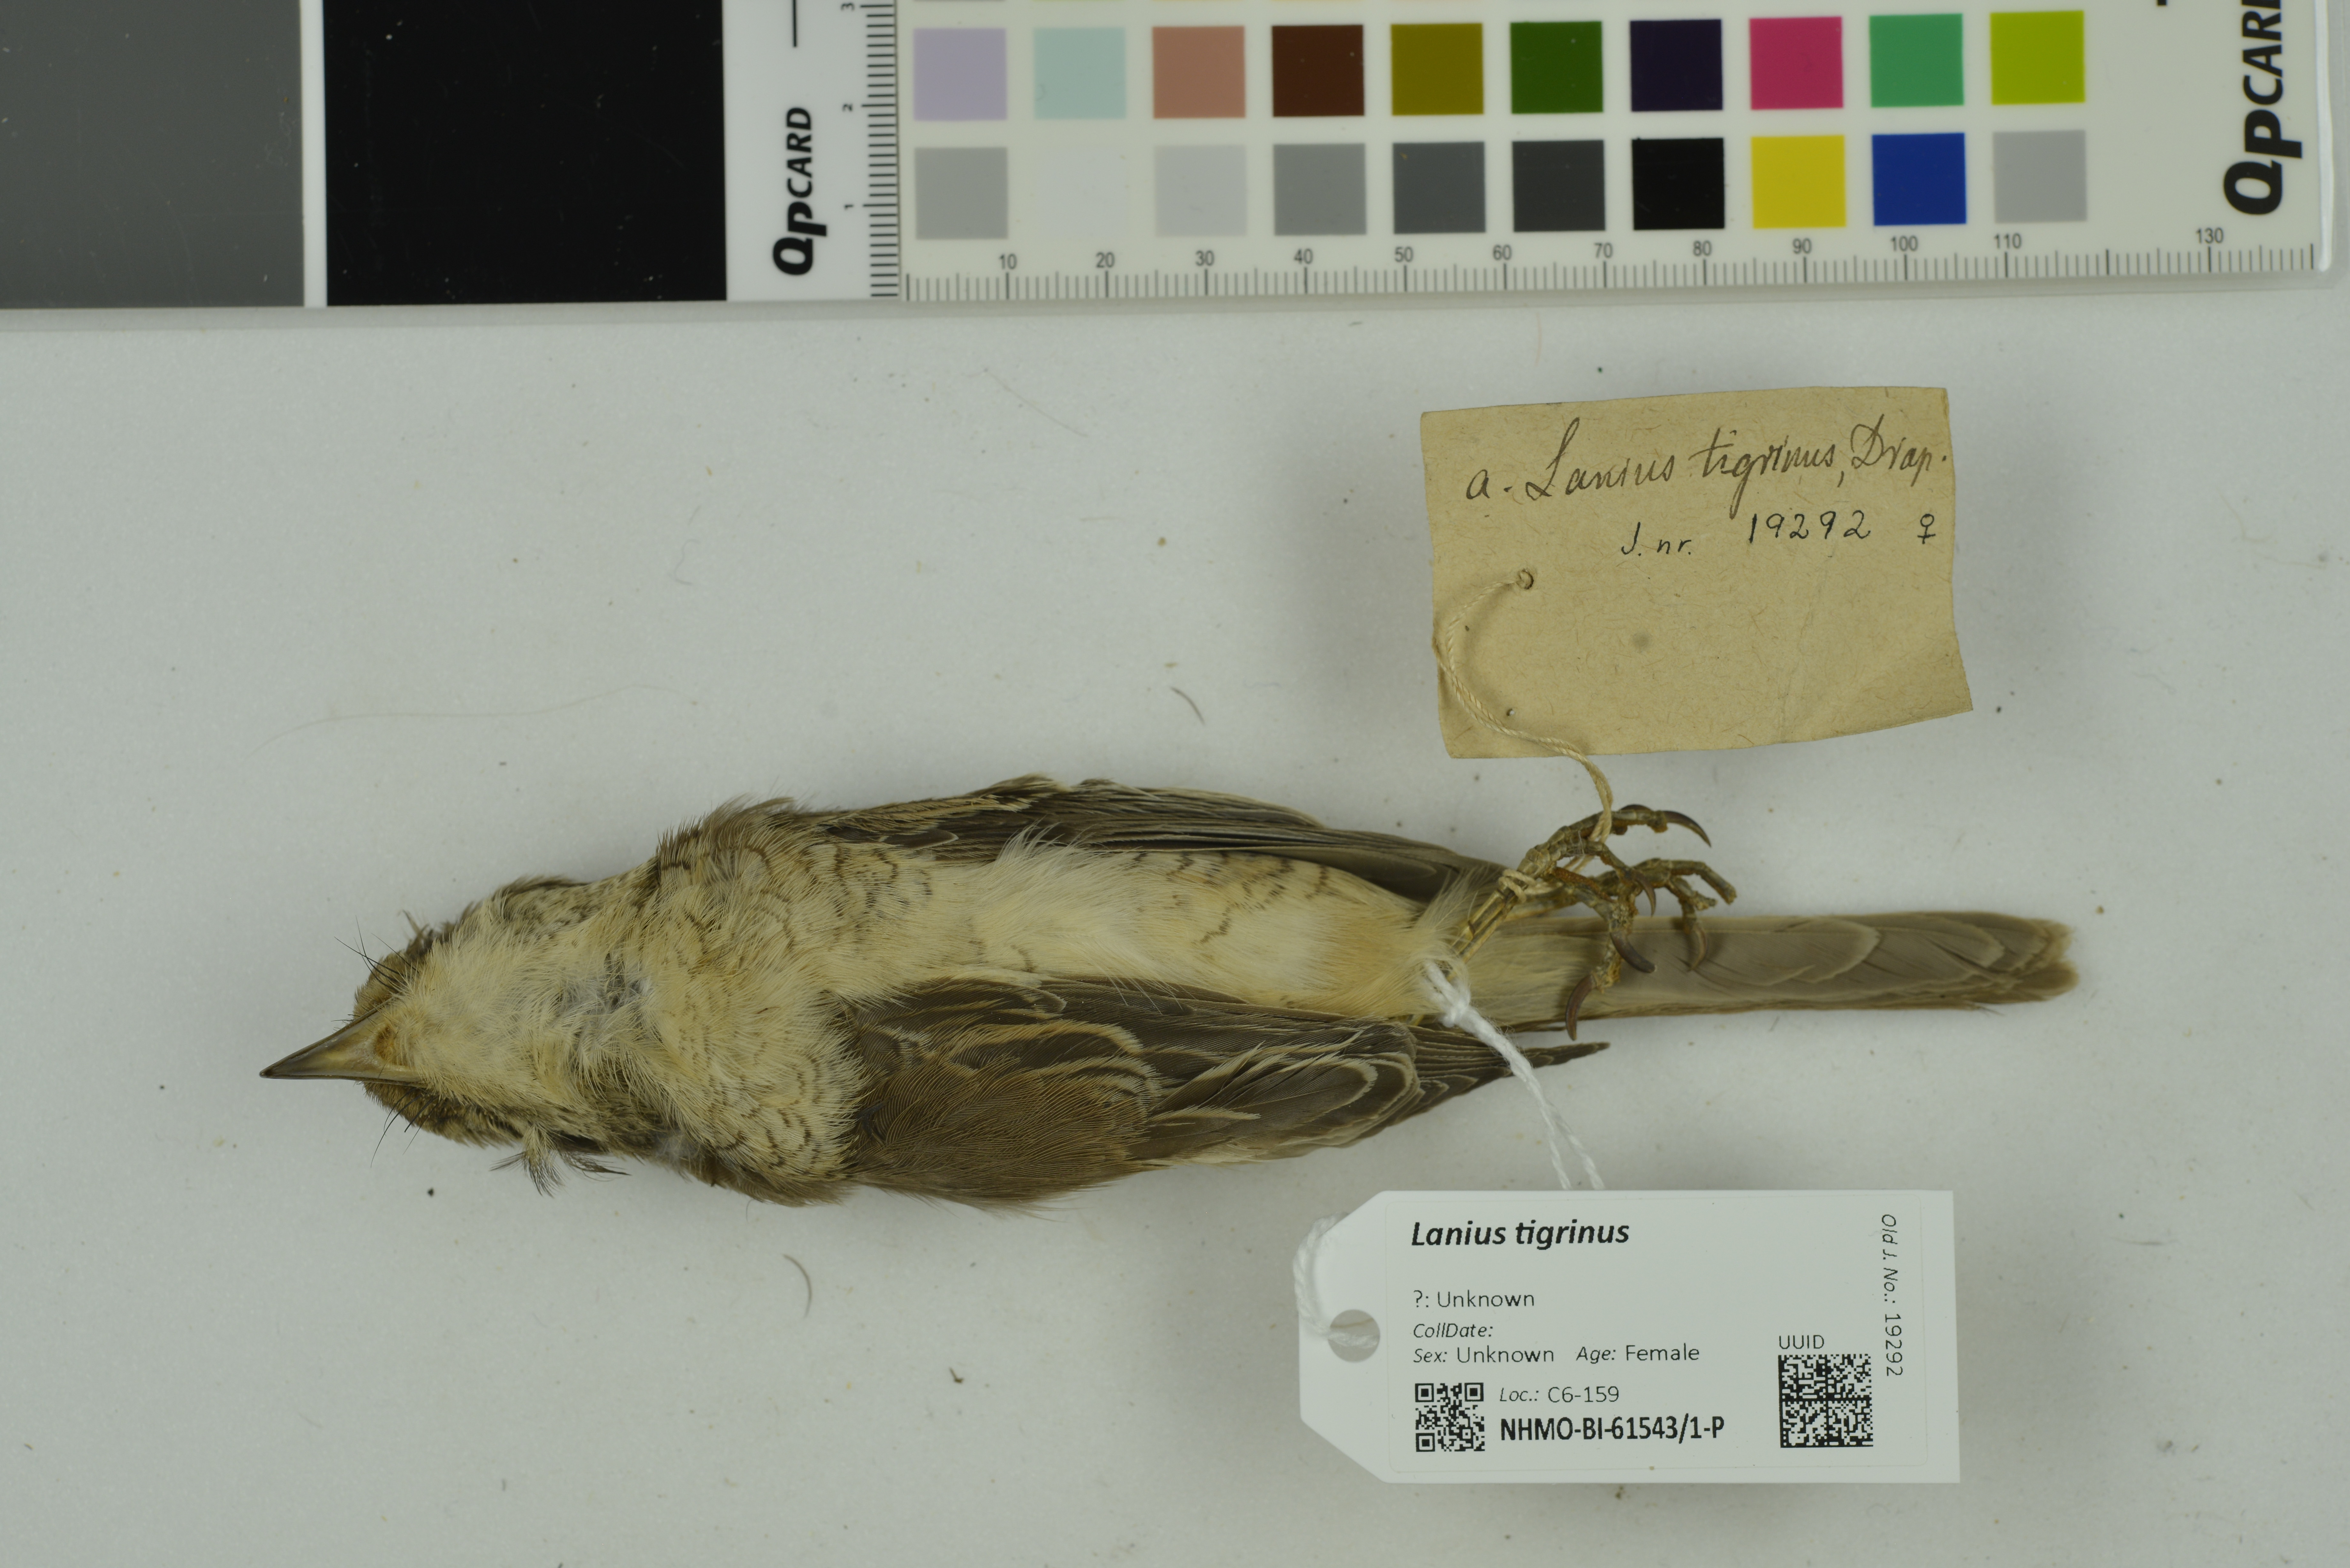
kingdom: Animalia
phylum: Chordata
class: Aves
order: Passeriformes
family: Laniidae
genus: Lanius
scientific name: Lanius tigrinus
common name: Tiger shrike
